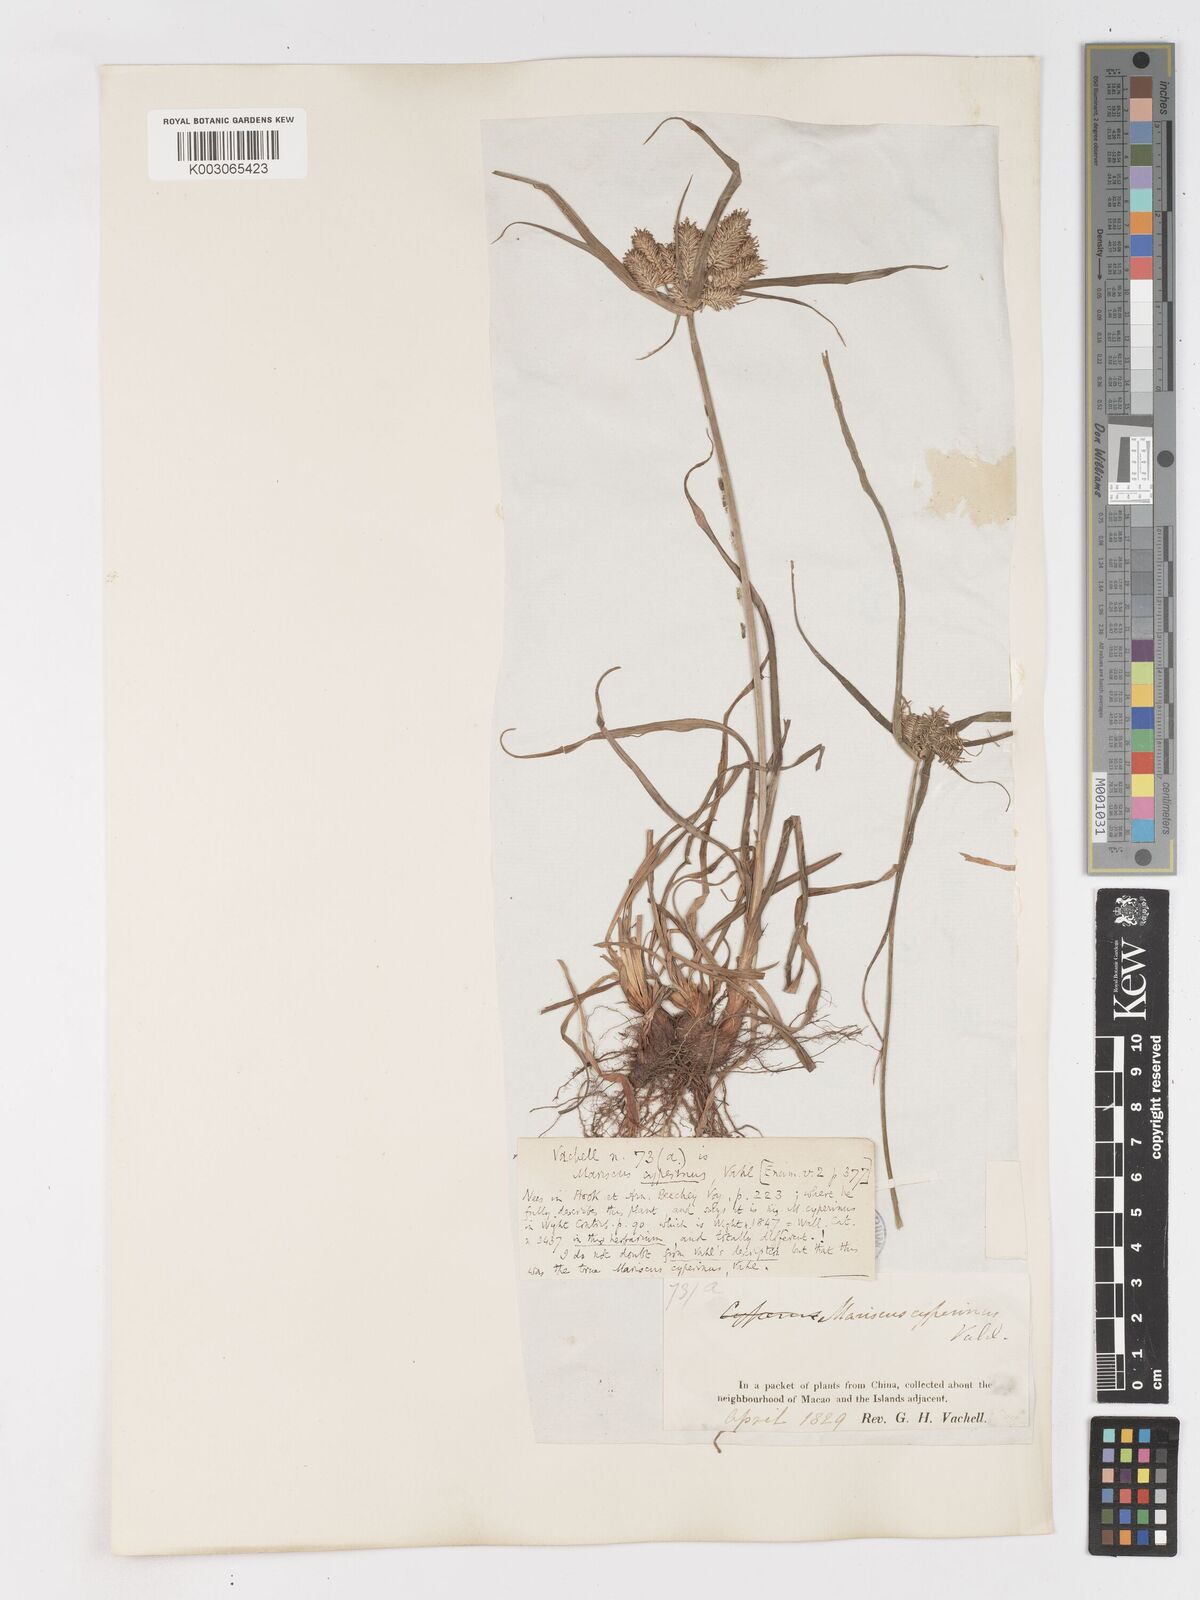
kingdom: Plantae
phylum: Tracheophyta
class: Liliopsida
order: Poales
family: Cyperaceae
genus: Cyperus
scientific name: Cyperus cyperinus
